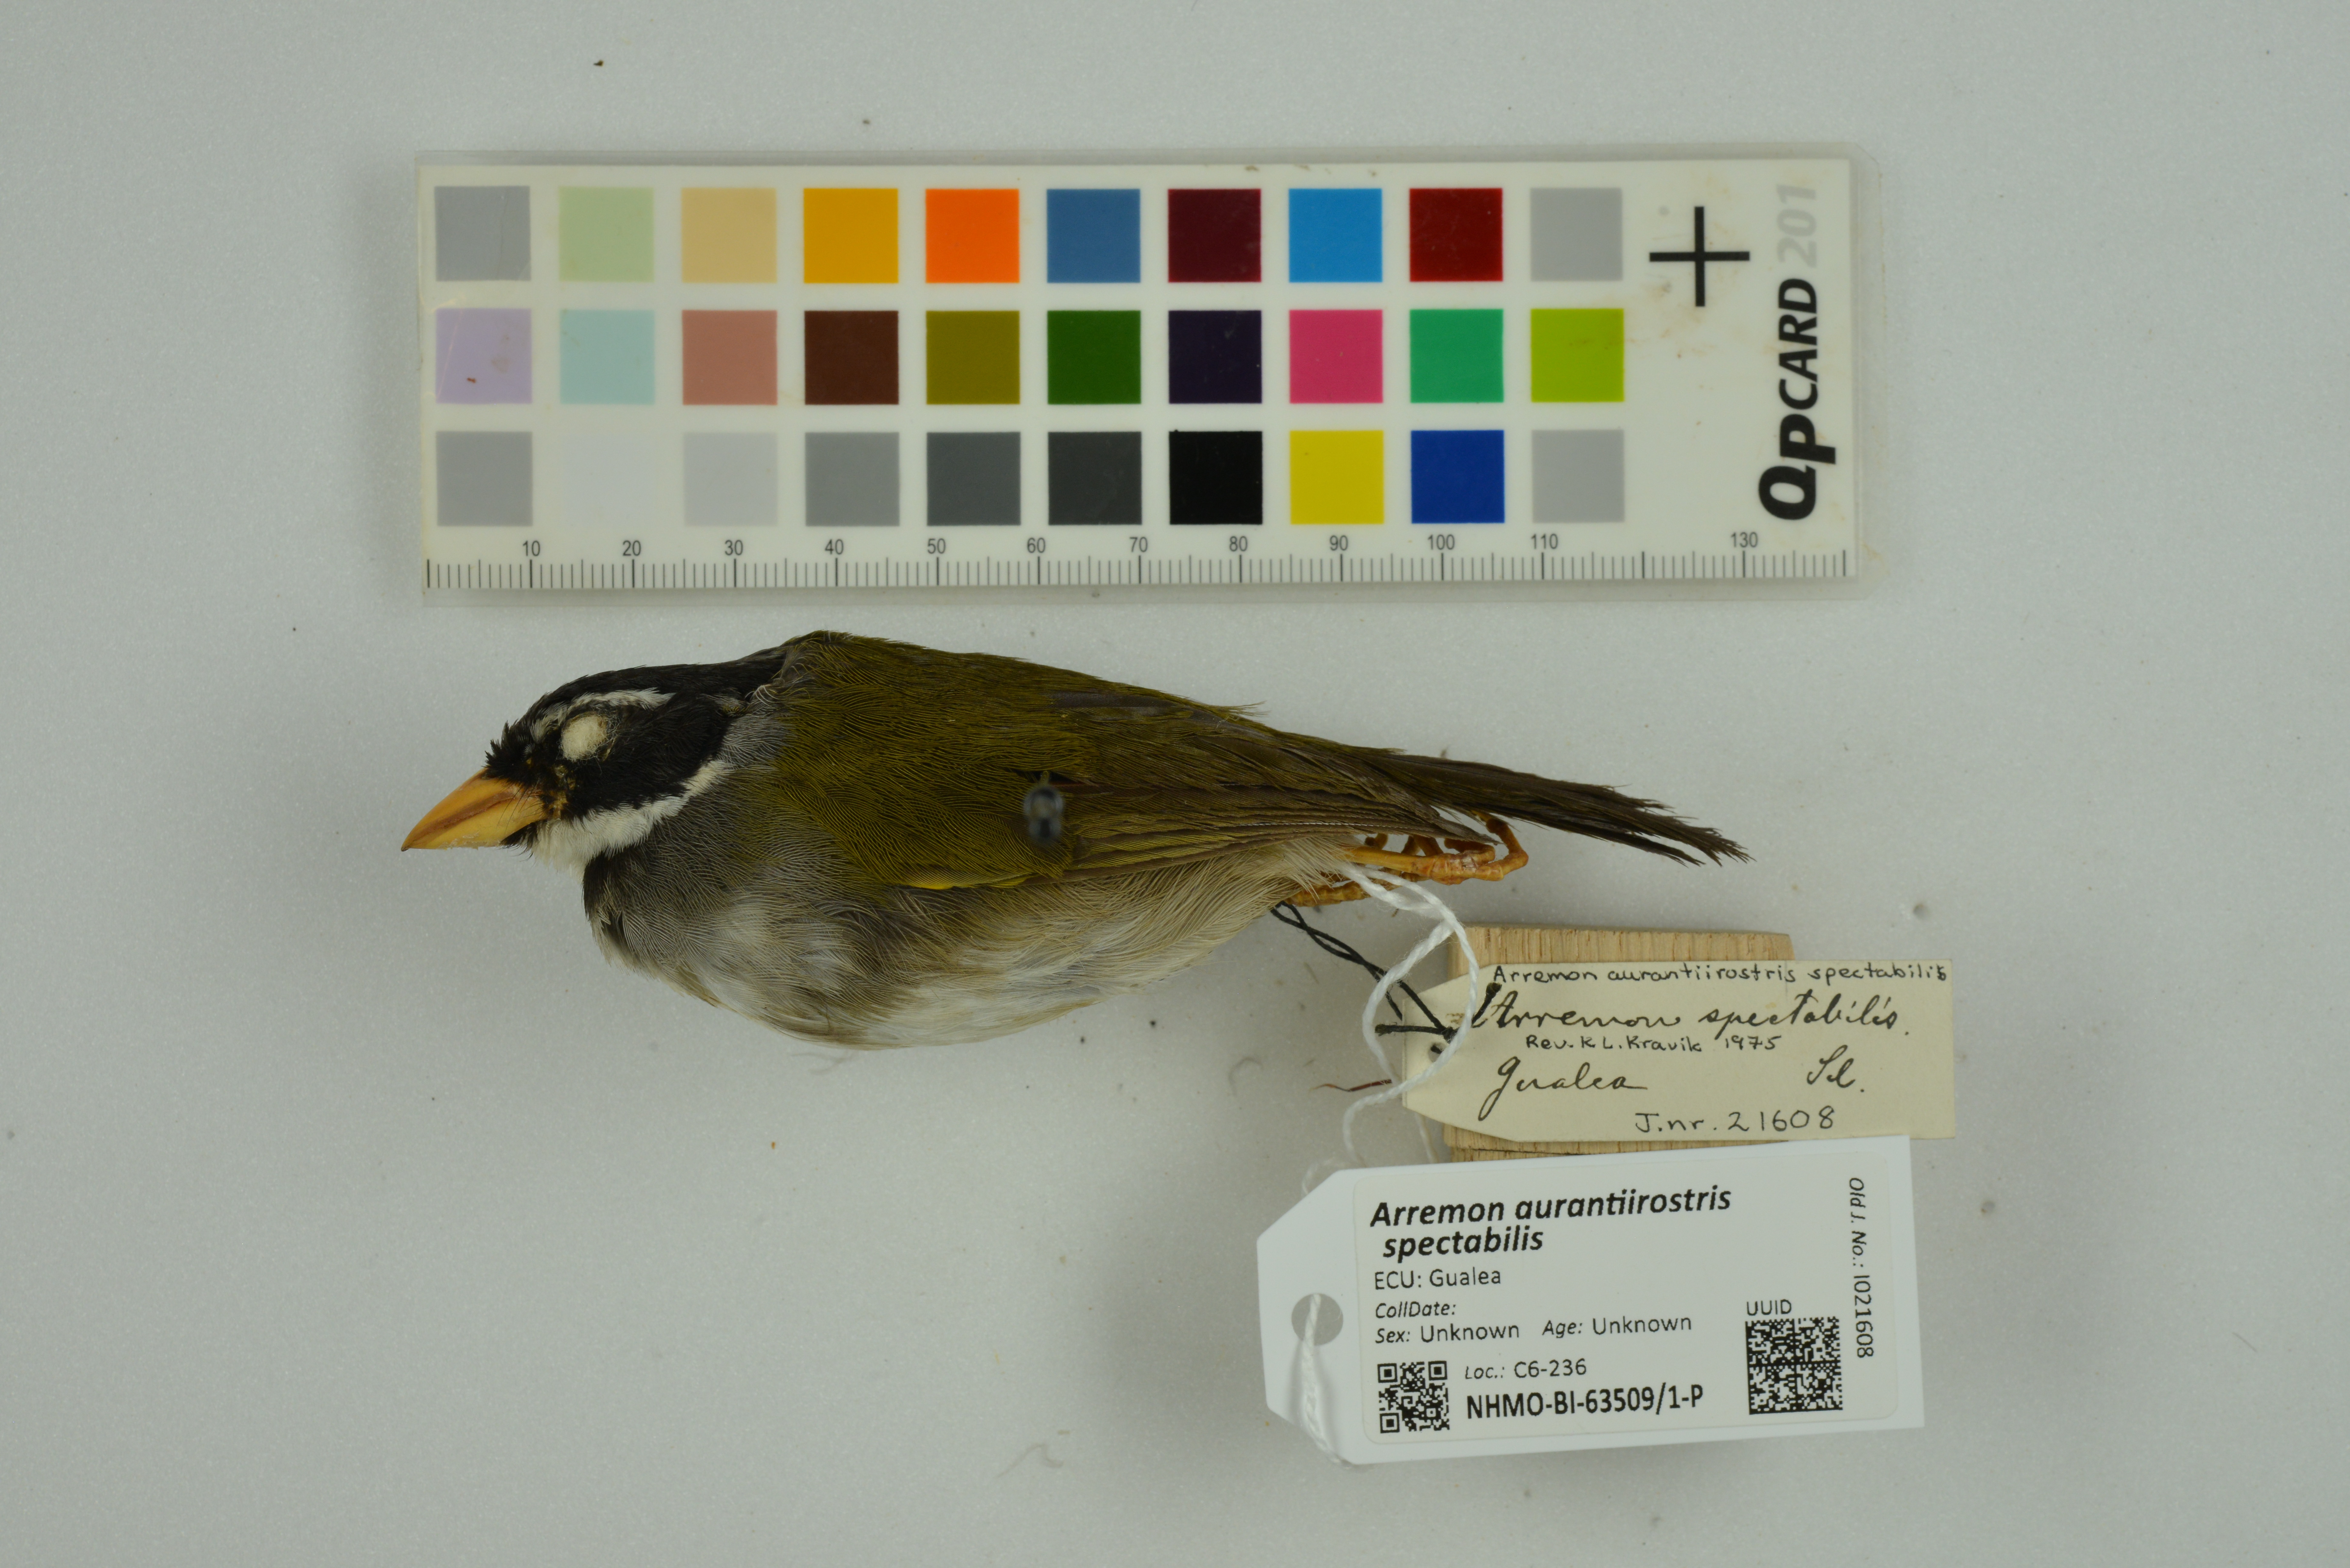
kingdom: Animalia
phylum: Chordata
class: Aves
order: Passeriformes
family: Passerellidae
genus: Arremon
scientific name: Arremon aurantiirostris
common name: Orange-billed sparrow
